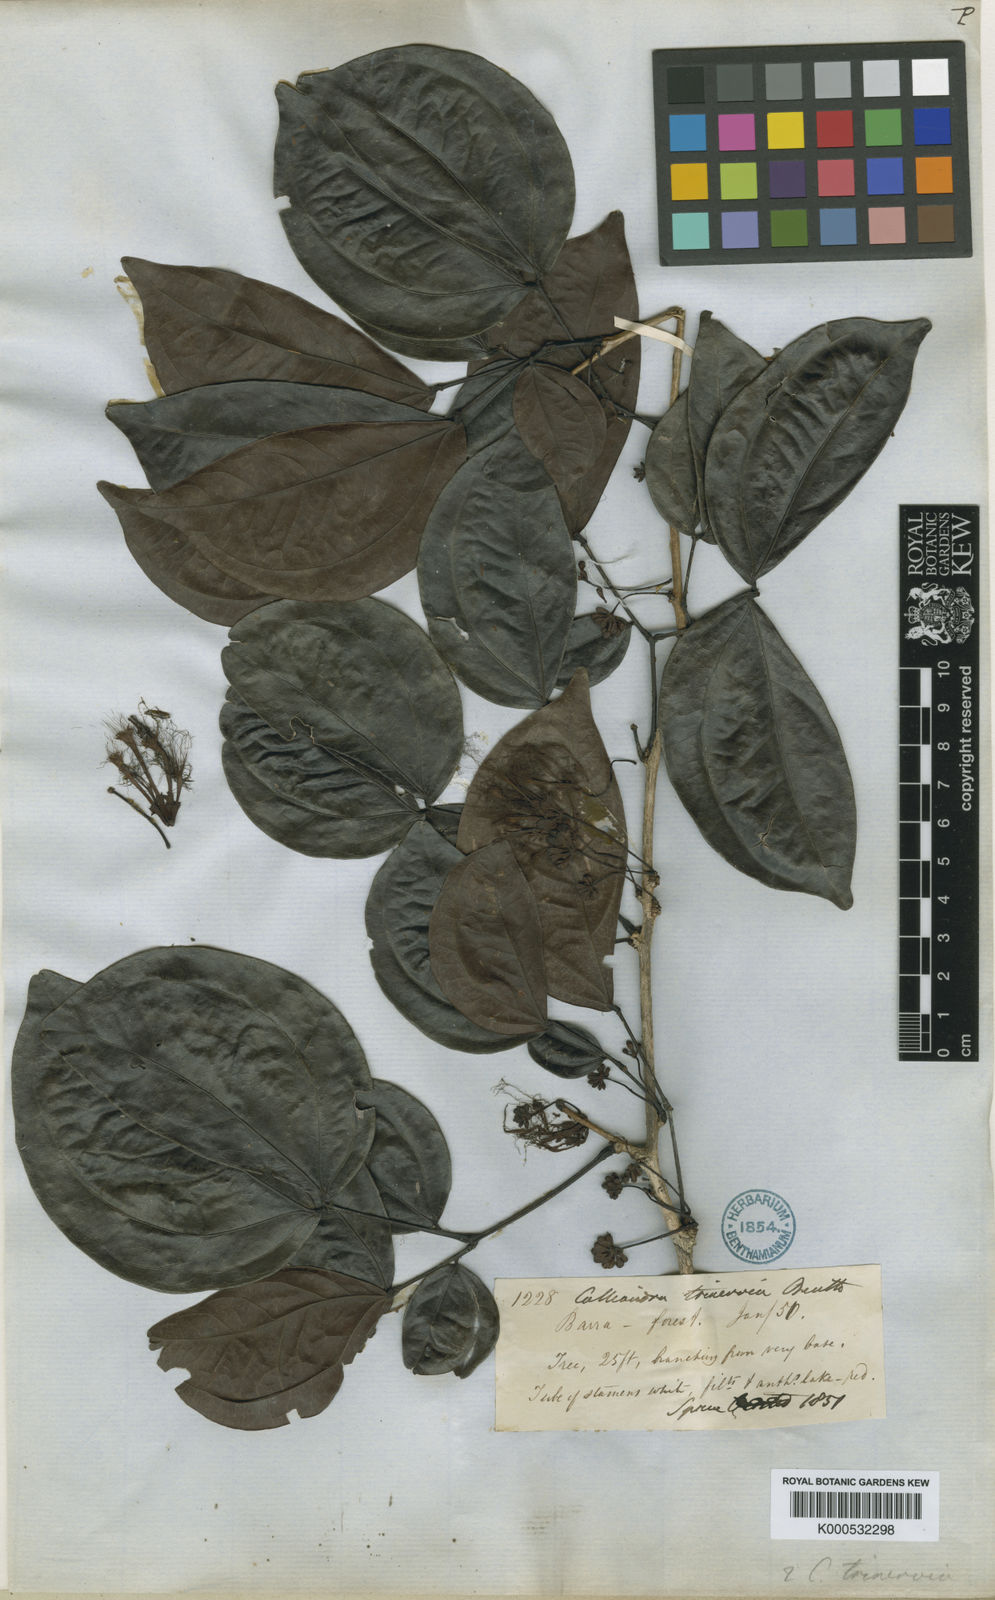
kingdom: Plantae
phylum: Tracheophyta
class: Magnoliopsida
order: Fabales
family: Fabaceae
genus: Calliandra
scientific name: Calliandra trinervia
